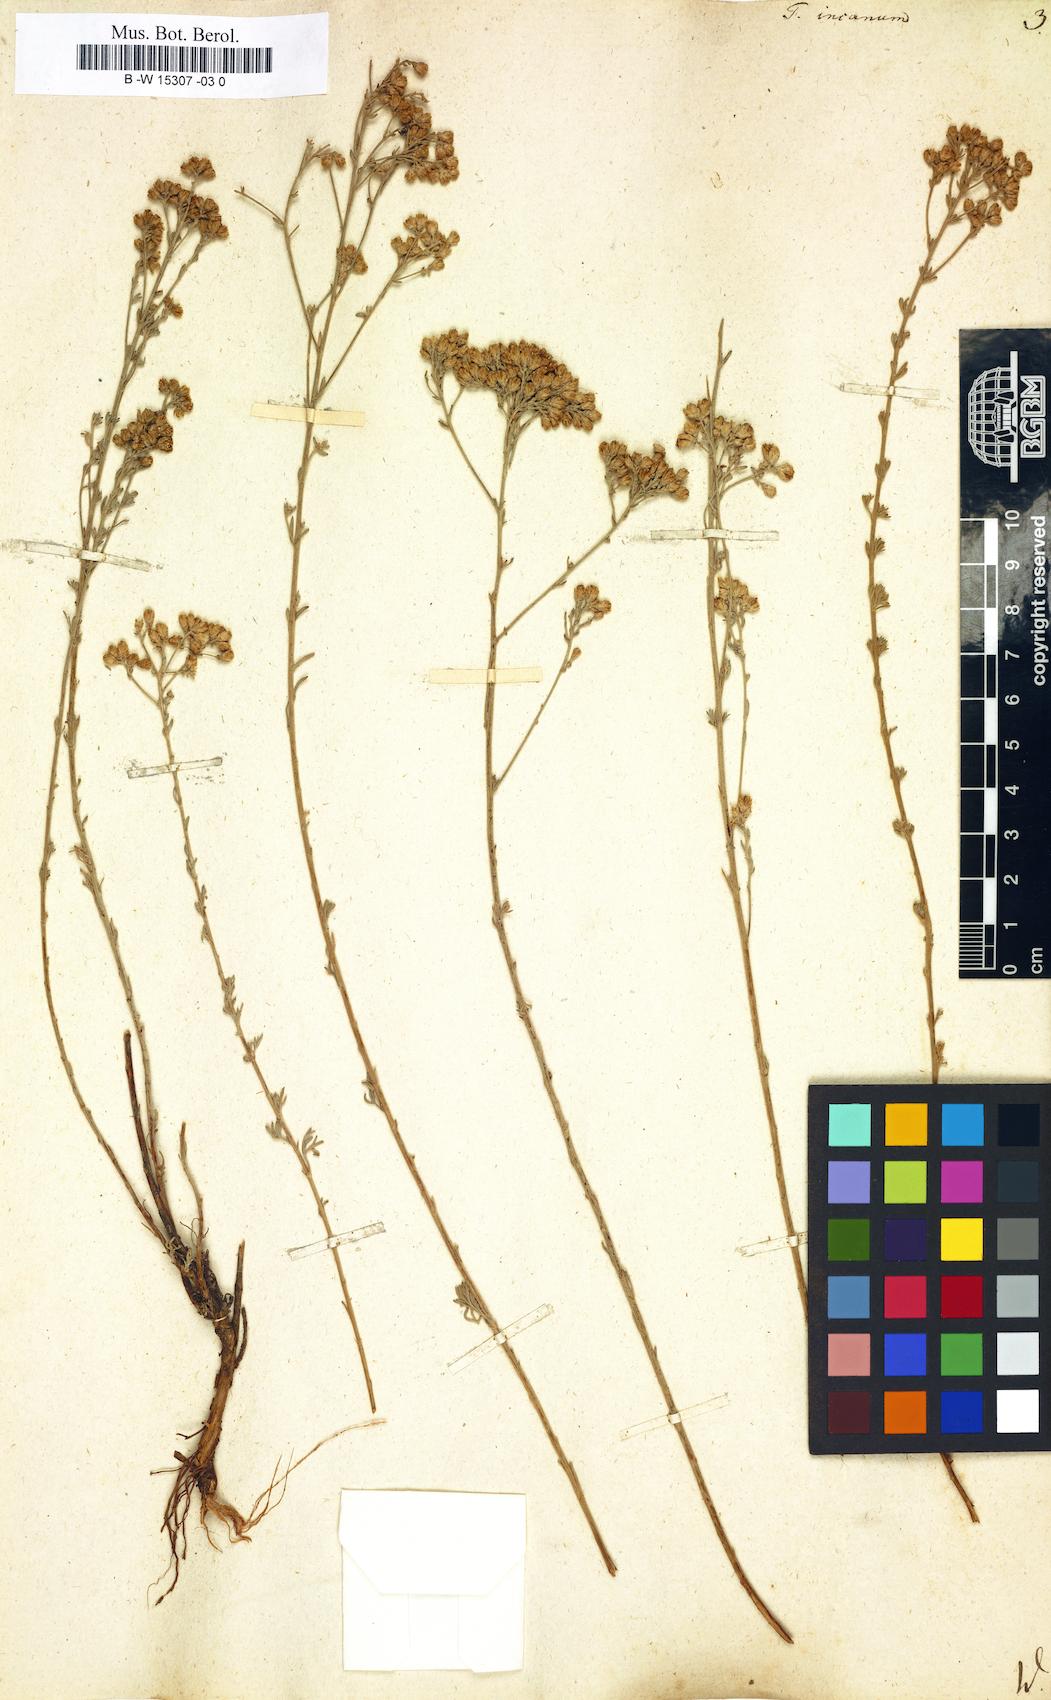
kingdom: Plantae
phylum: Tracheophyta
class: Magnoliopsida
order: Asterales
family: Asteraceae
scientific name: Asteraceae
